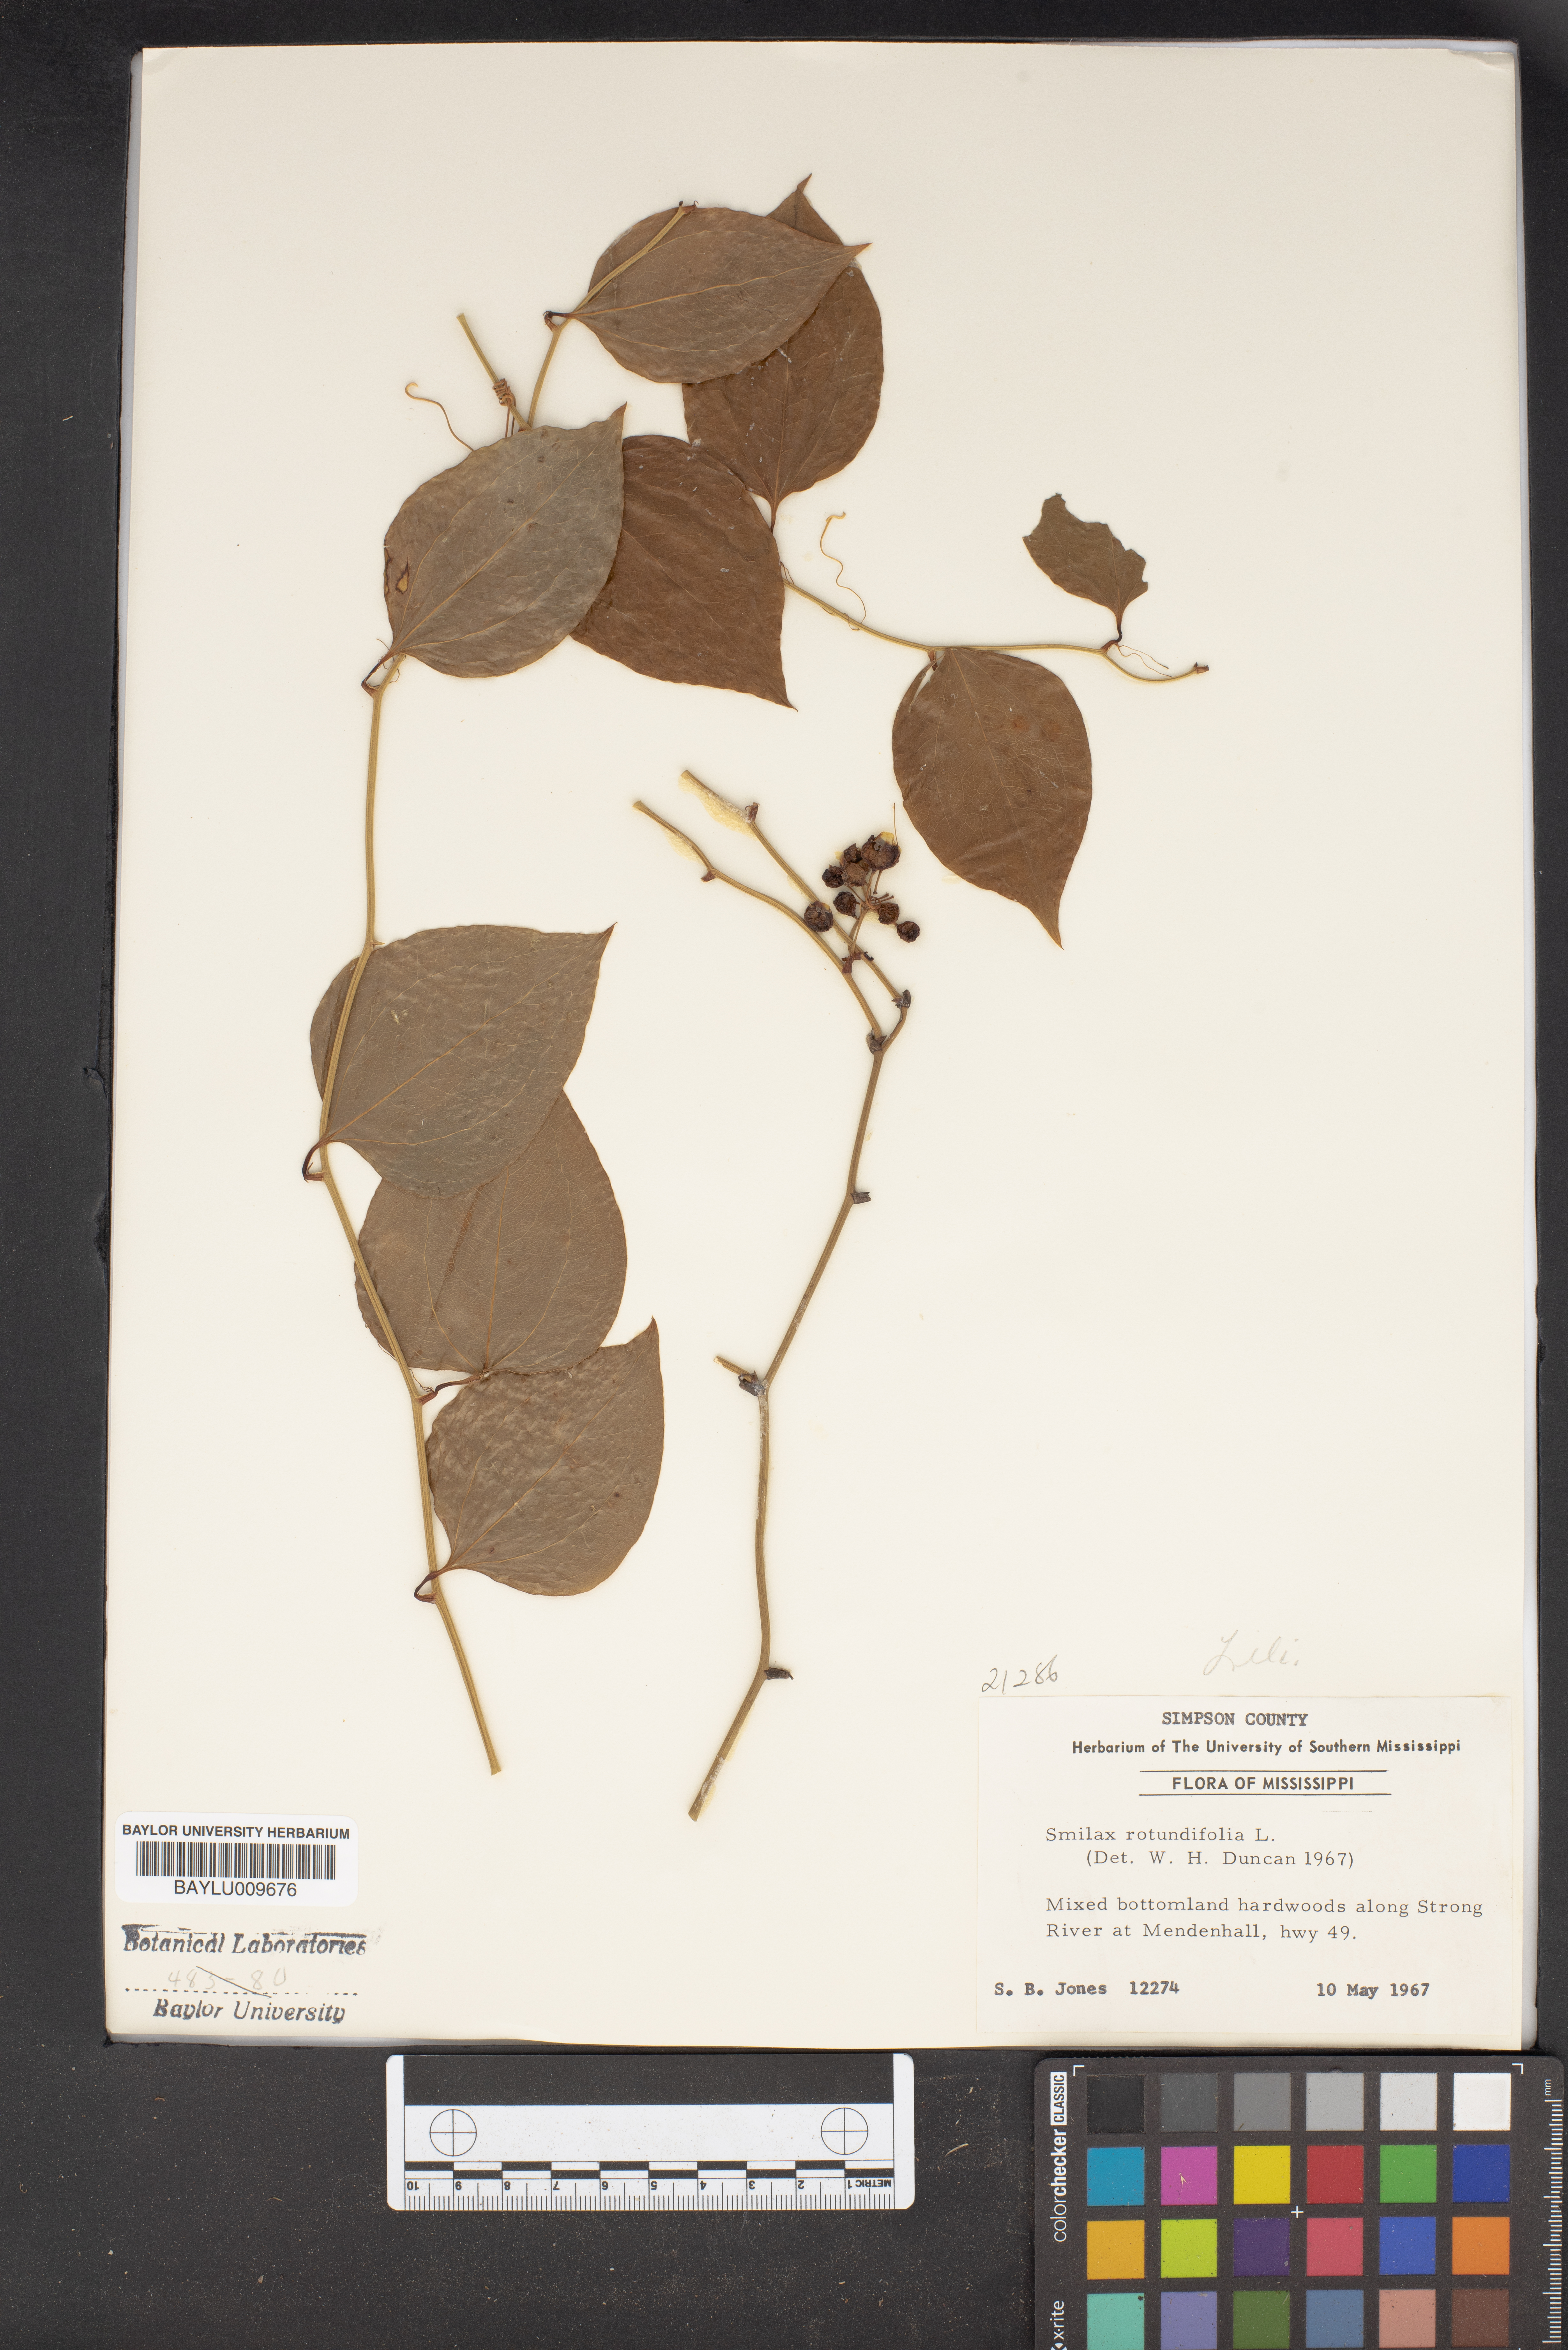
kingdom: Plantae
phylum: Tracheophyta
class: Liliopsida
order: Liliales
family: Smilacaceae
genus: Smilax
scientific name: Smilax rotundifolia
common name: Bullbriar
